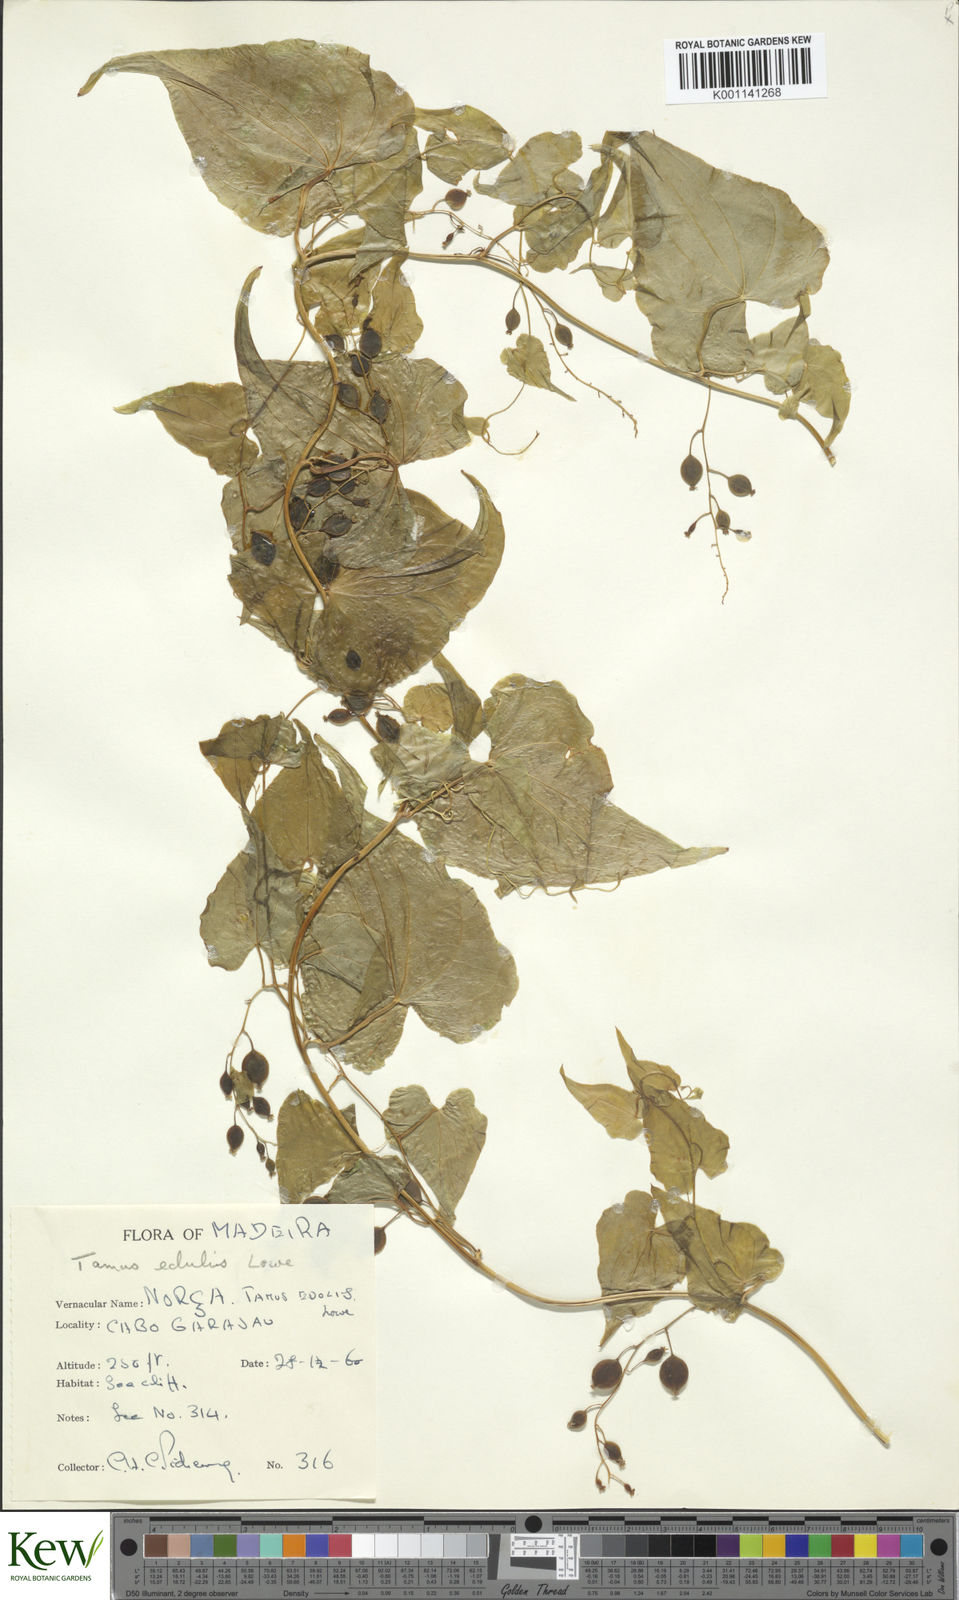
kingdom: Plantae
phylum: Tracheophyta
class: Liliopsida
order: Dioscoreales
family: Dioscoreaceae
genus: Dioscorea
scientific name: Dioscorea
